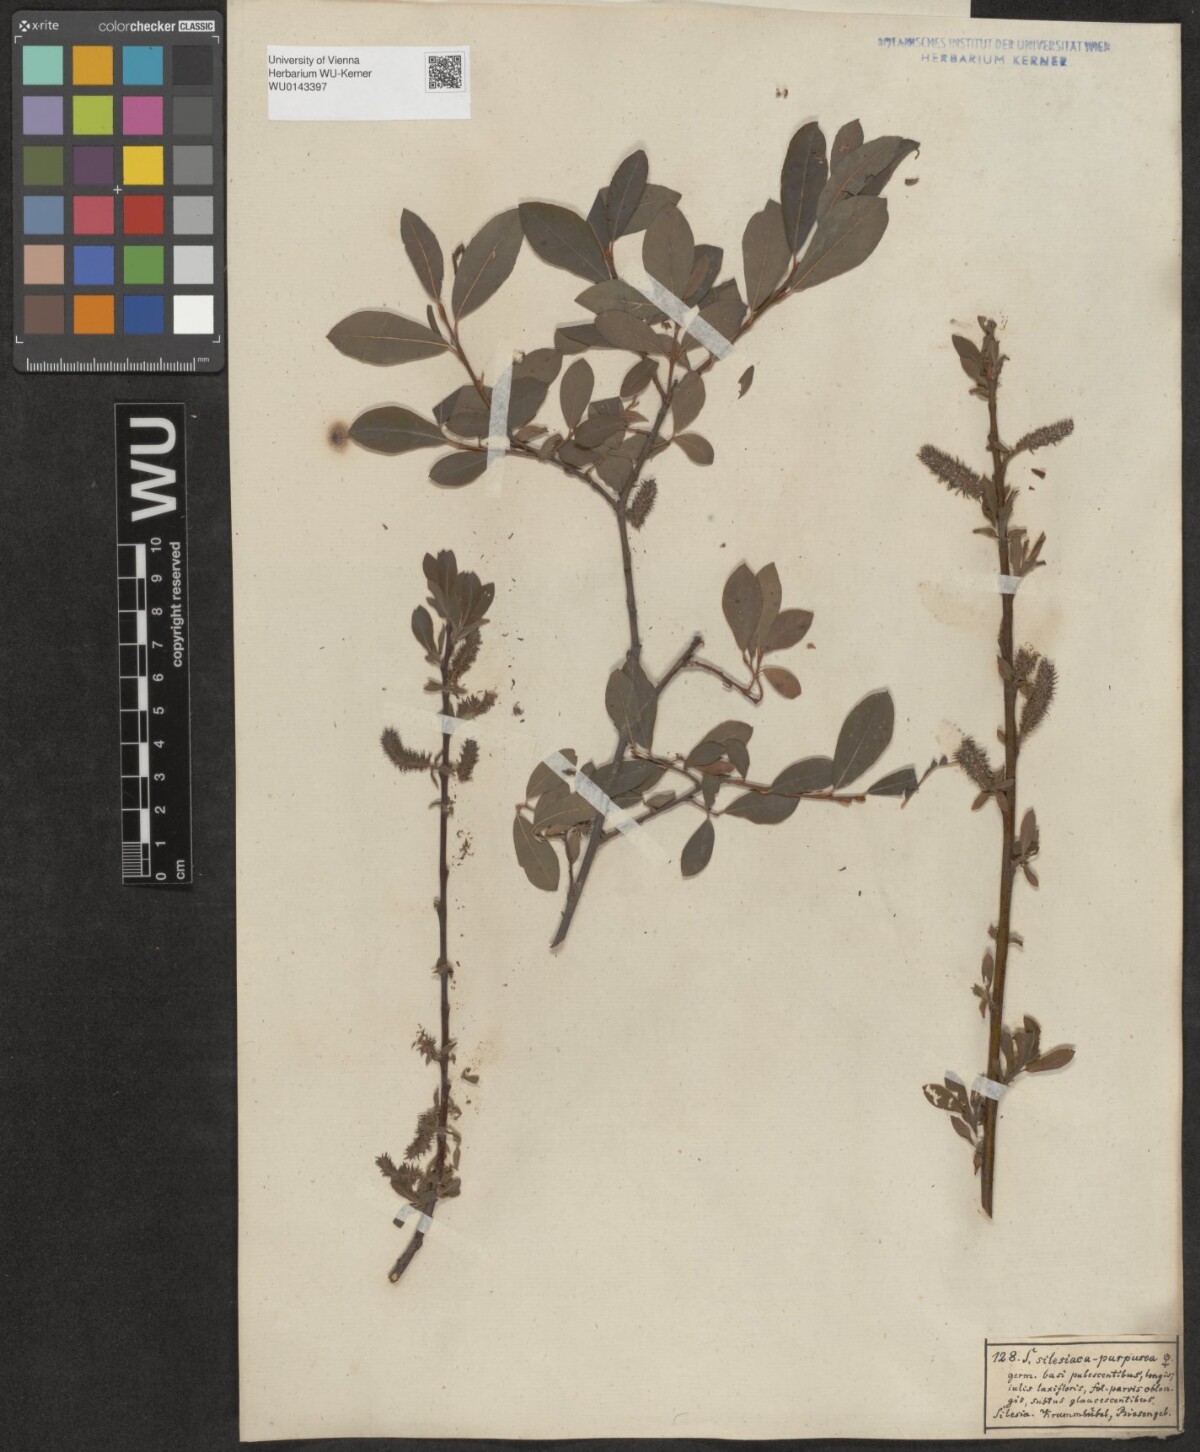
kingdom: Plantae
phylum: Tracheophyta
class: Magnoliopsida
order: Malpighiales
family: Salicaceae
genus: Salix
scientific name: Salix
